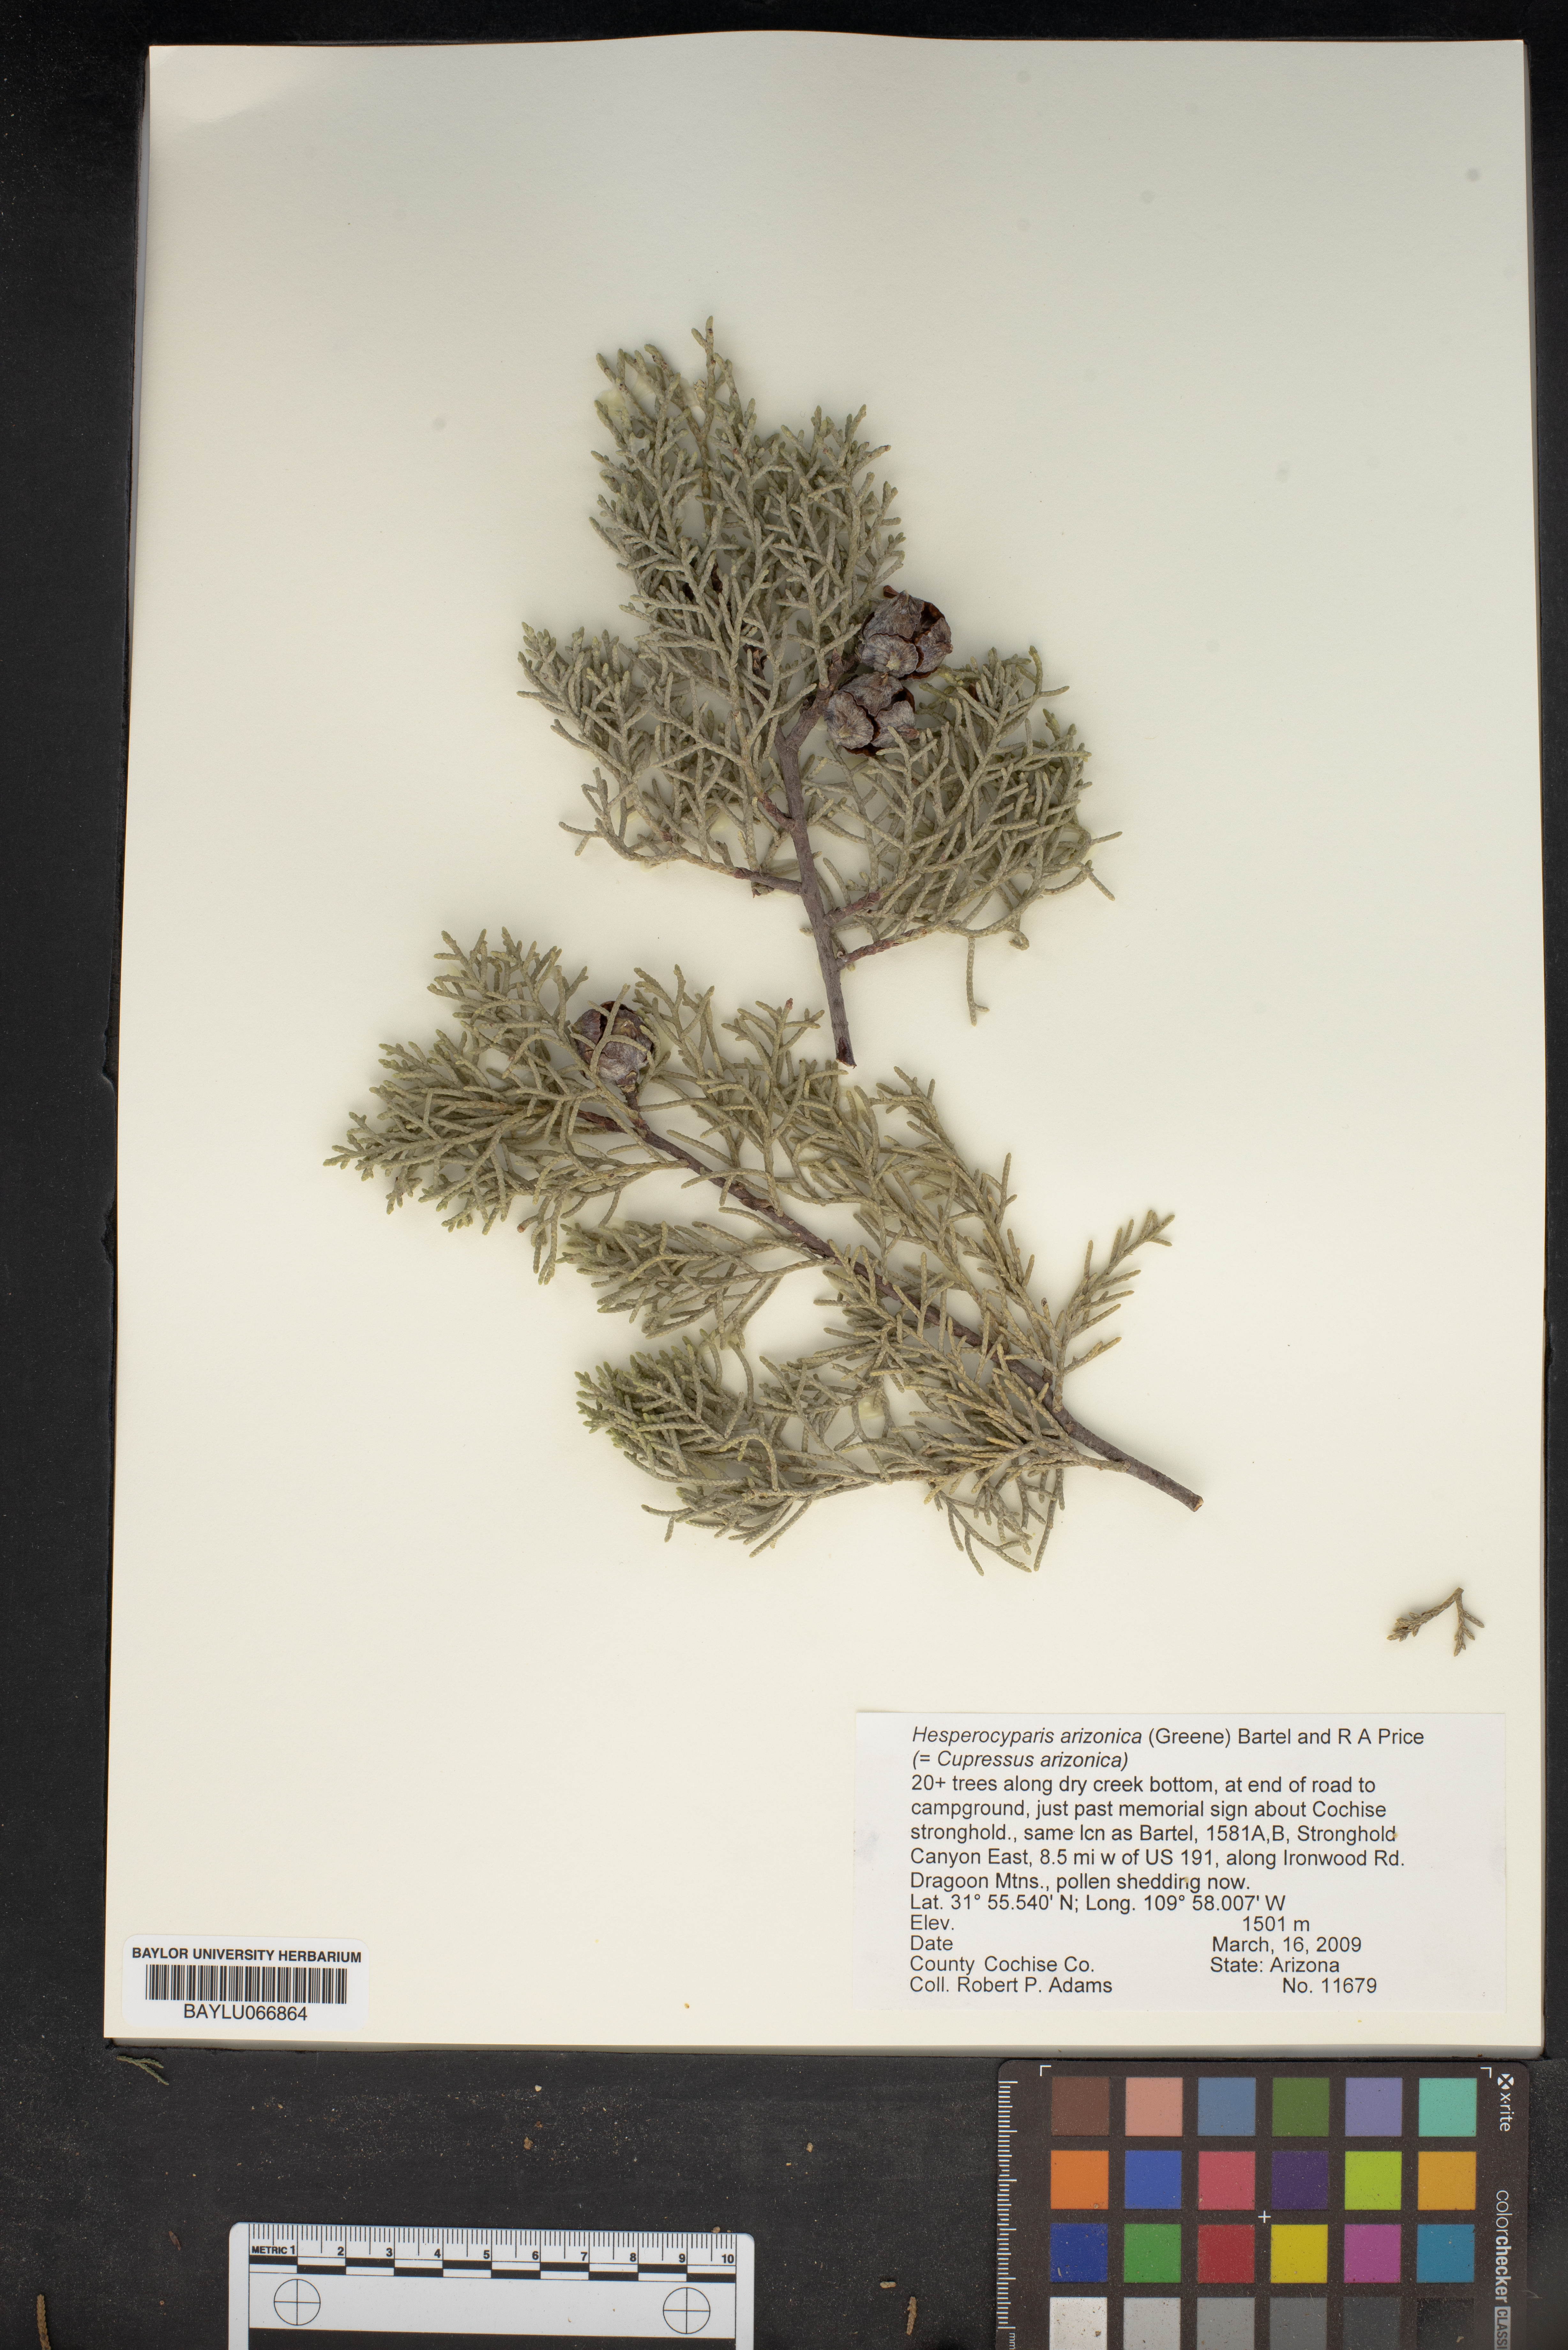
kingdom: Plantae
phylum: Tracheophyta
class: Pinopsida
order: Pinales
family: Cupressaceae
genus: Cupressus
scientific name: Cupressus arizonica
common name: Arizona cypress
